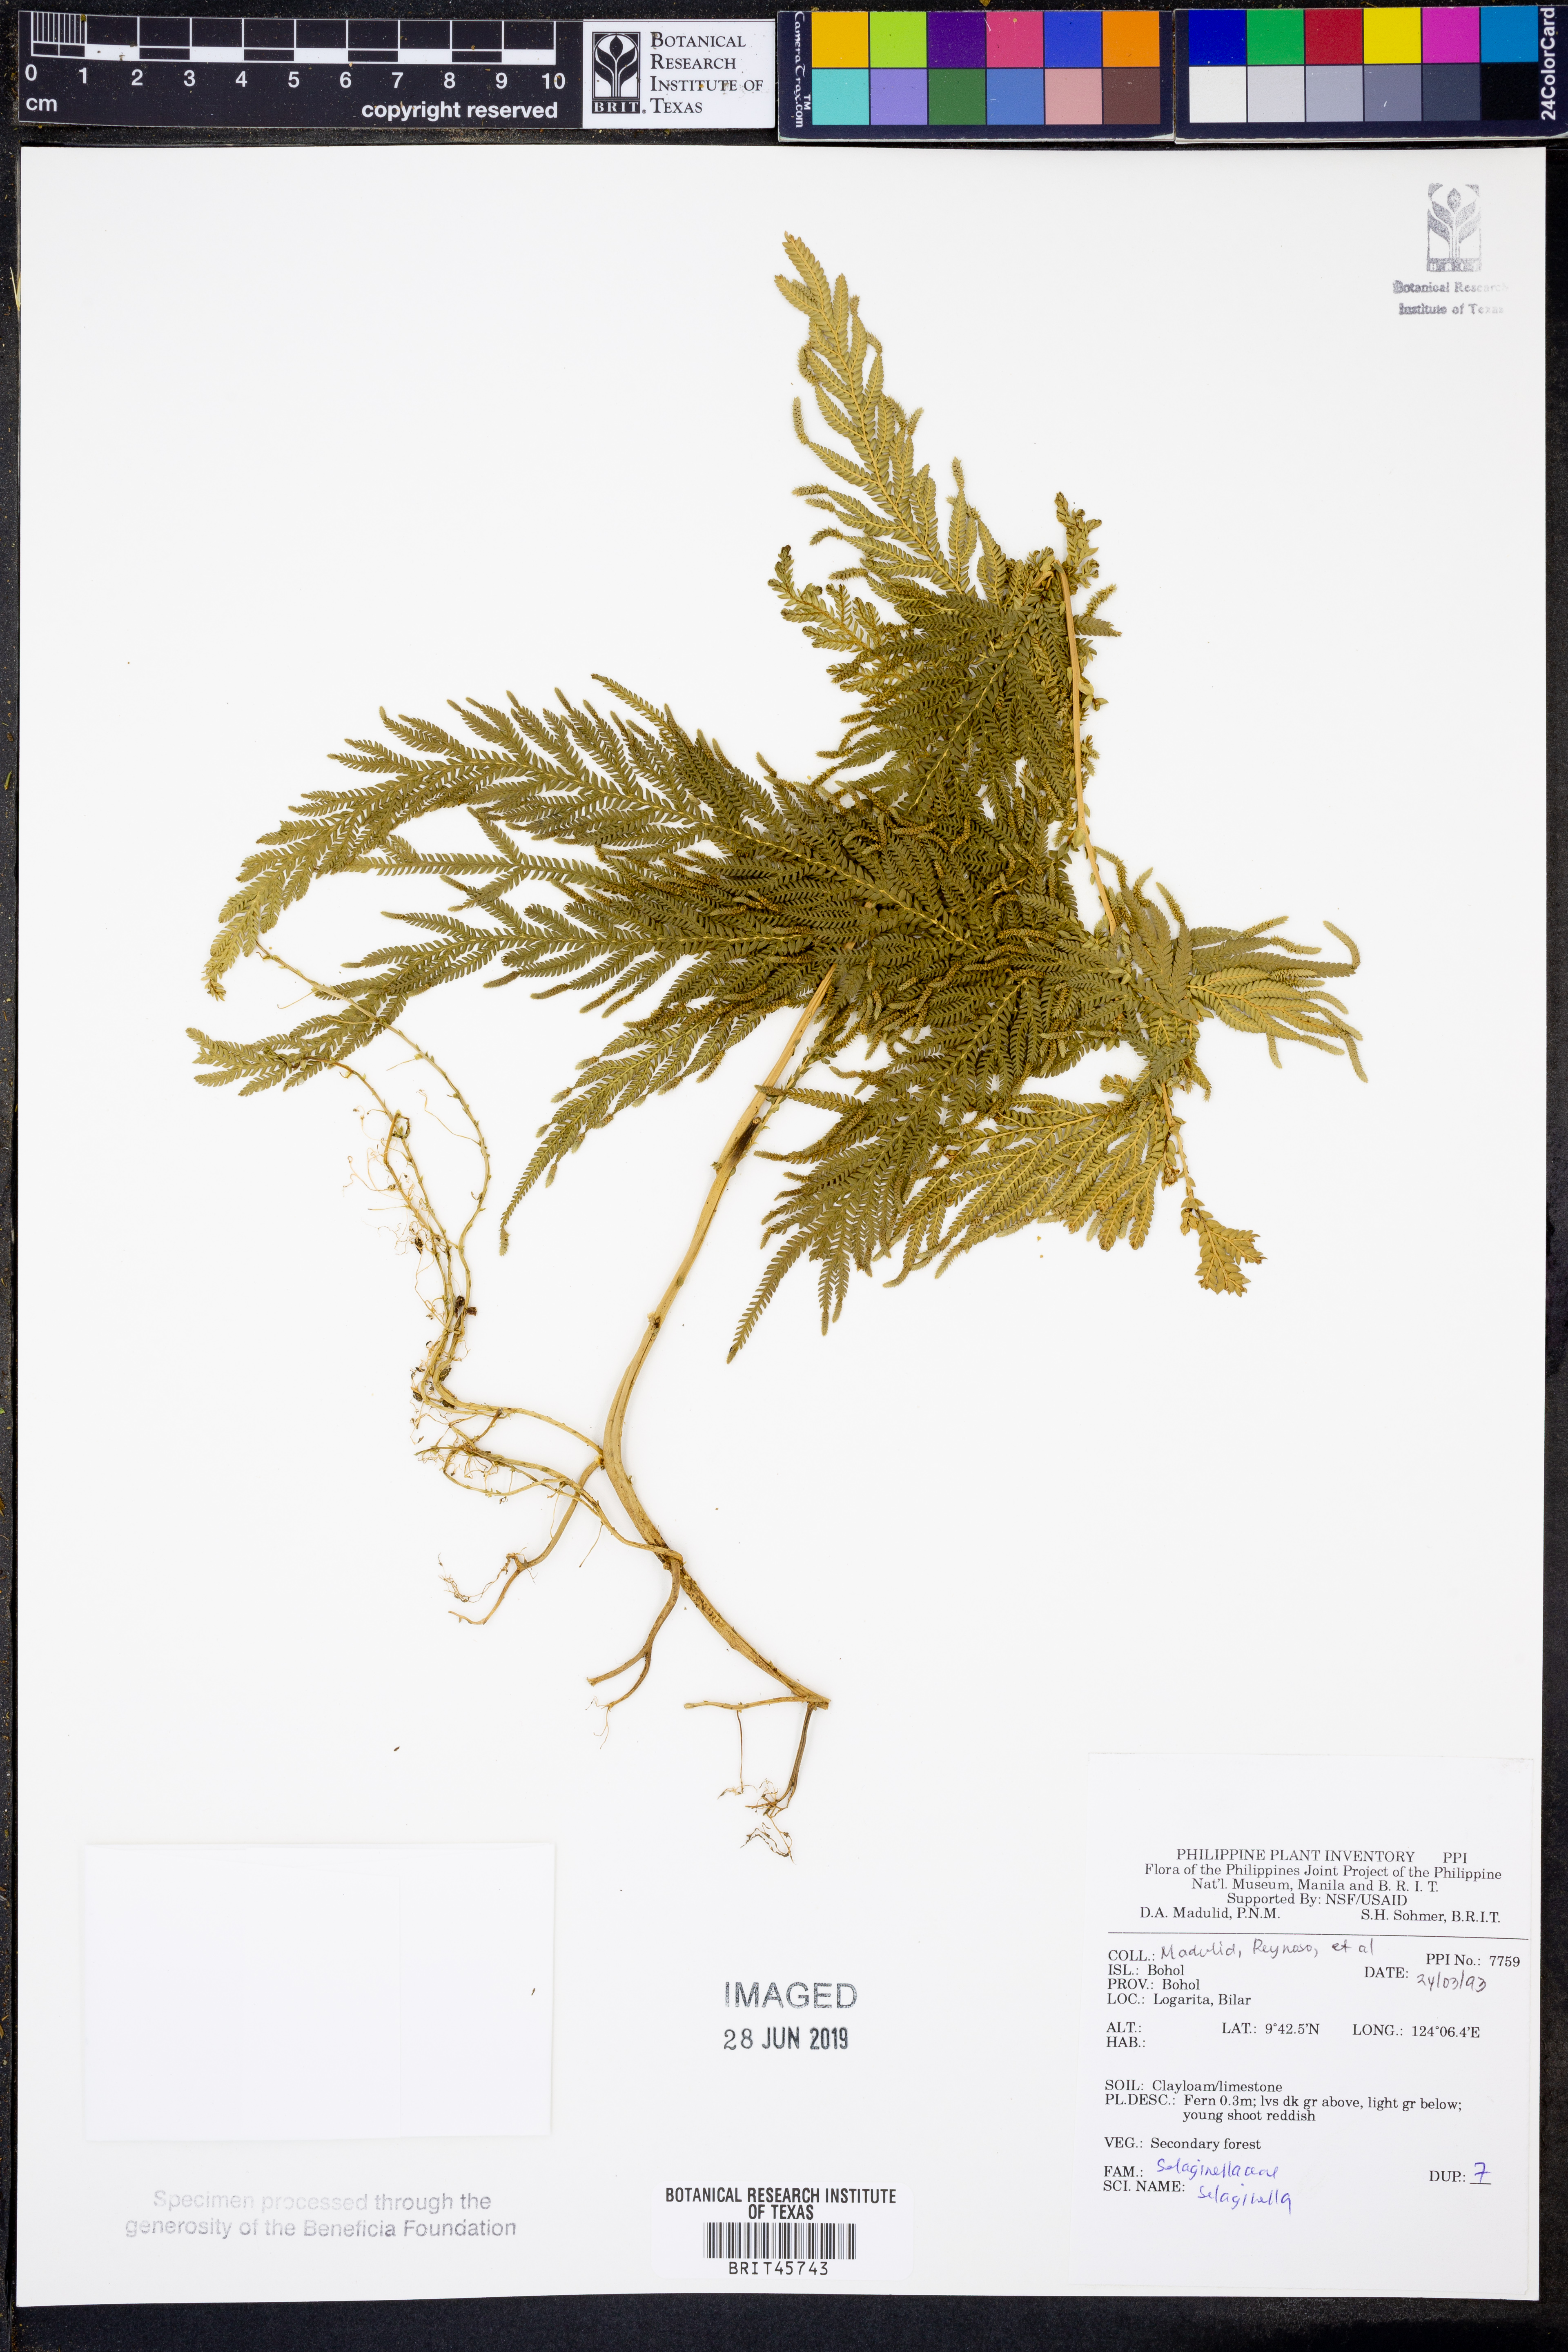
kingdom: Plantae
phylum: Tracheophyta
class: Lycopodiopsida
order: Selaginellales
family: Selaginellaceae
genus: Selaginella
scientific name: Selaginella
